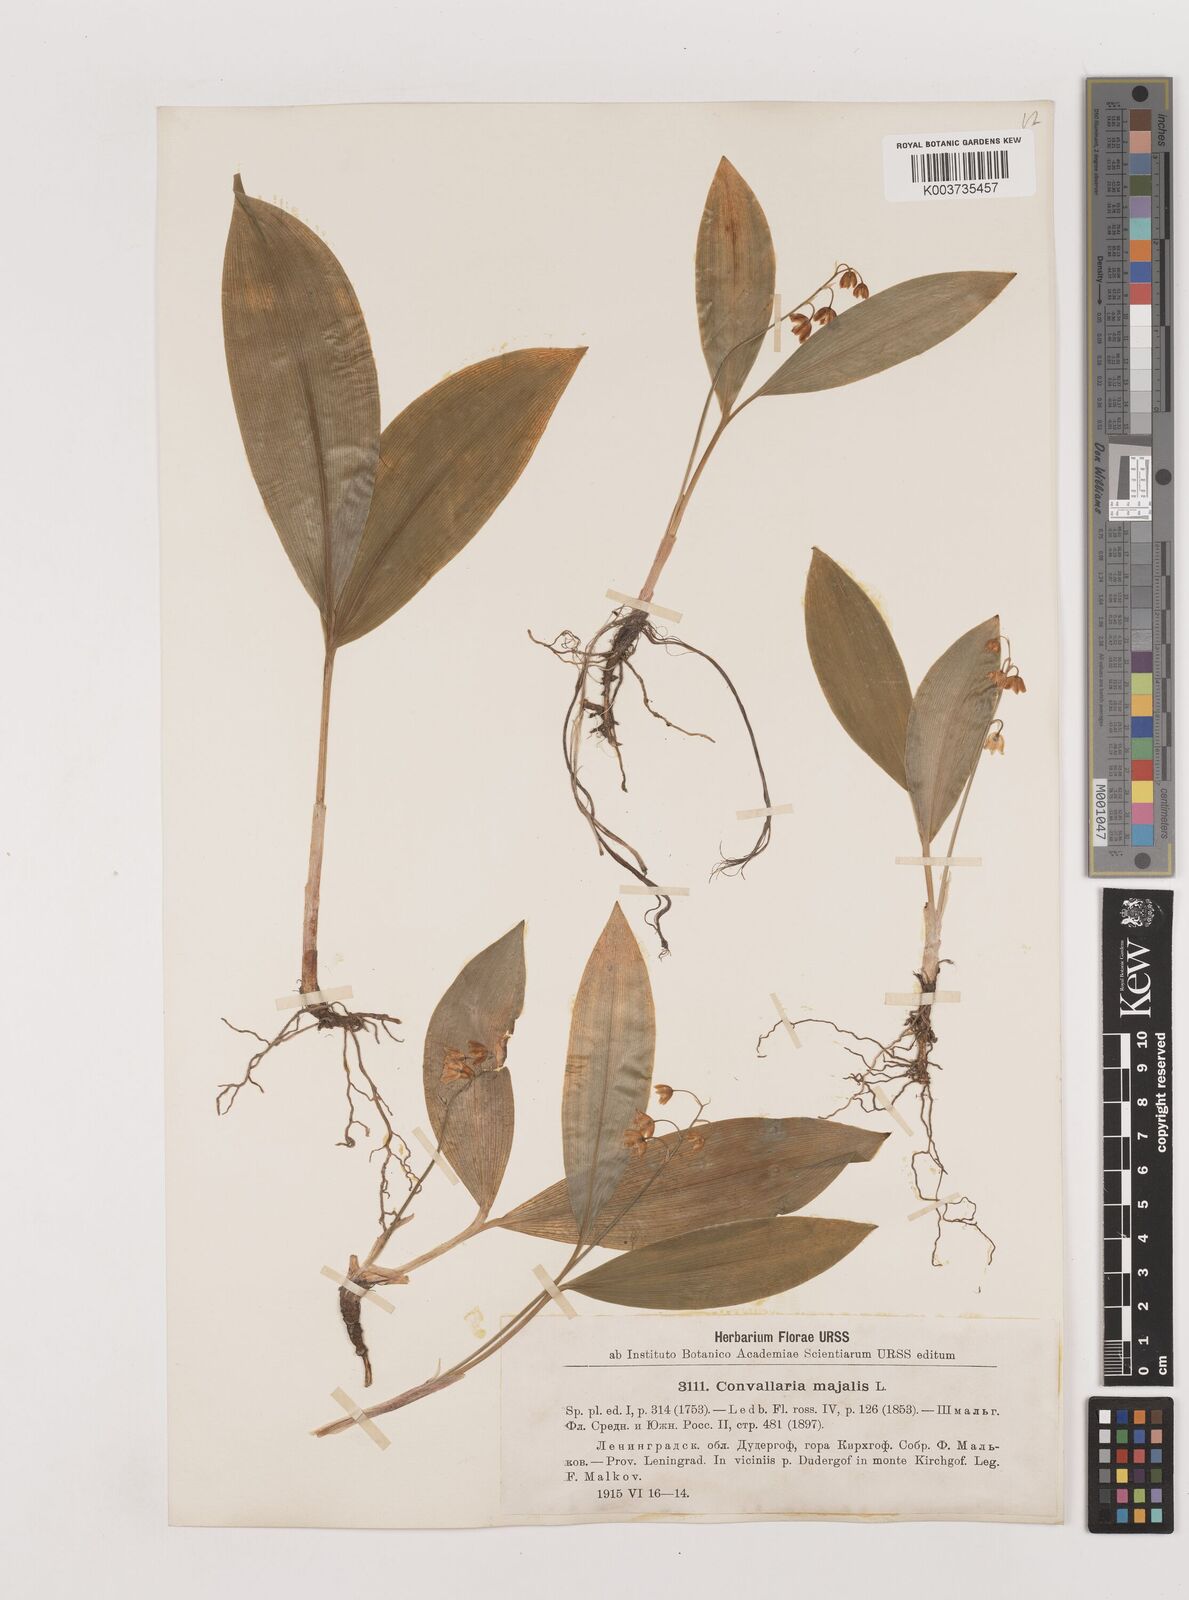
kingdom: Plantae
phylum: Tracheophyta
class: Liliopsida
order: Asparagales
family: Asparagaceae
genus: Convallaria
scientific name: Convallaria majalis
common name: Lily-of-the-valley
